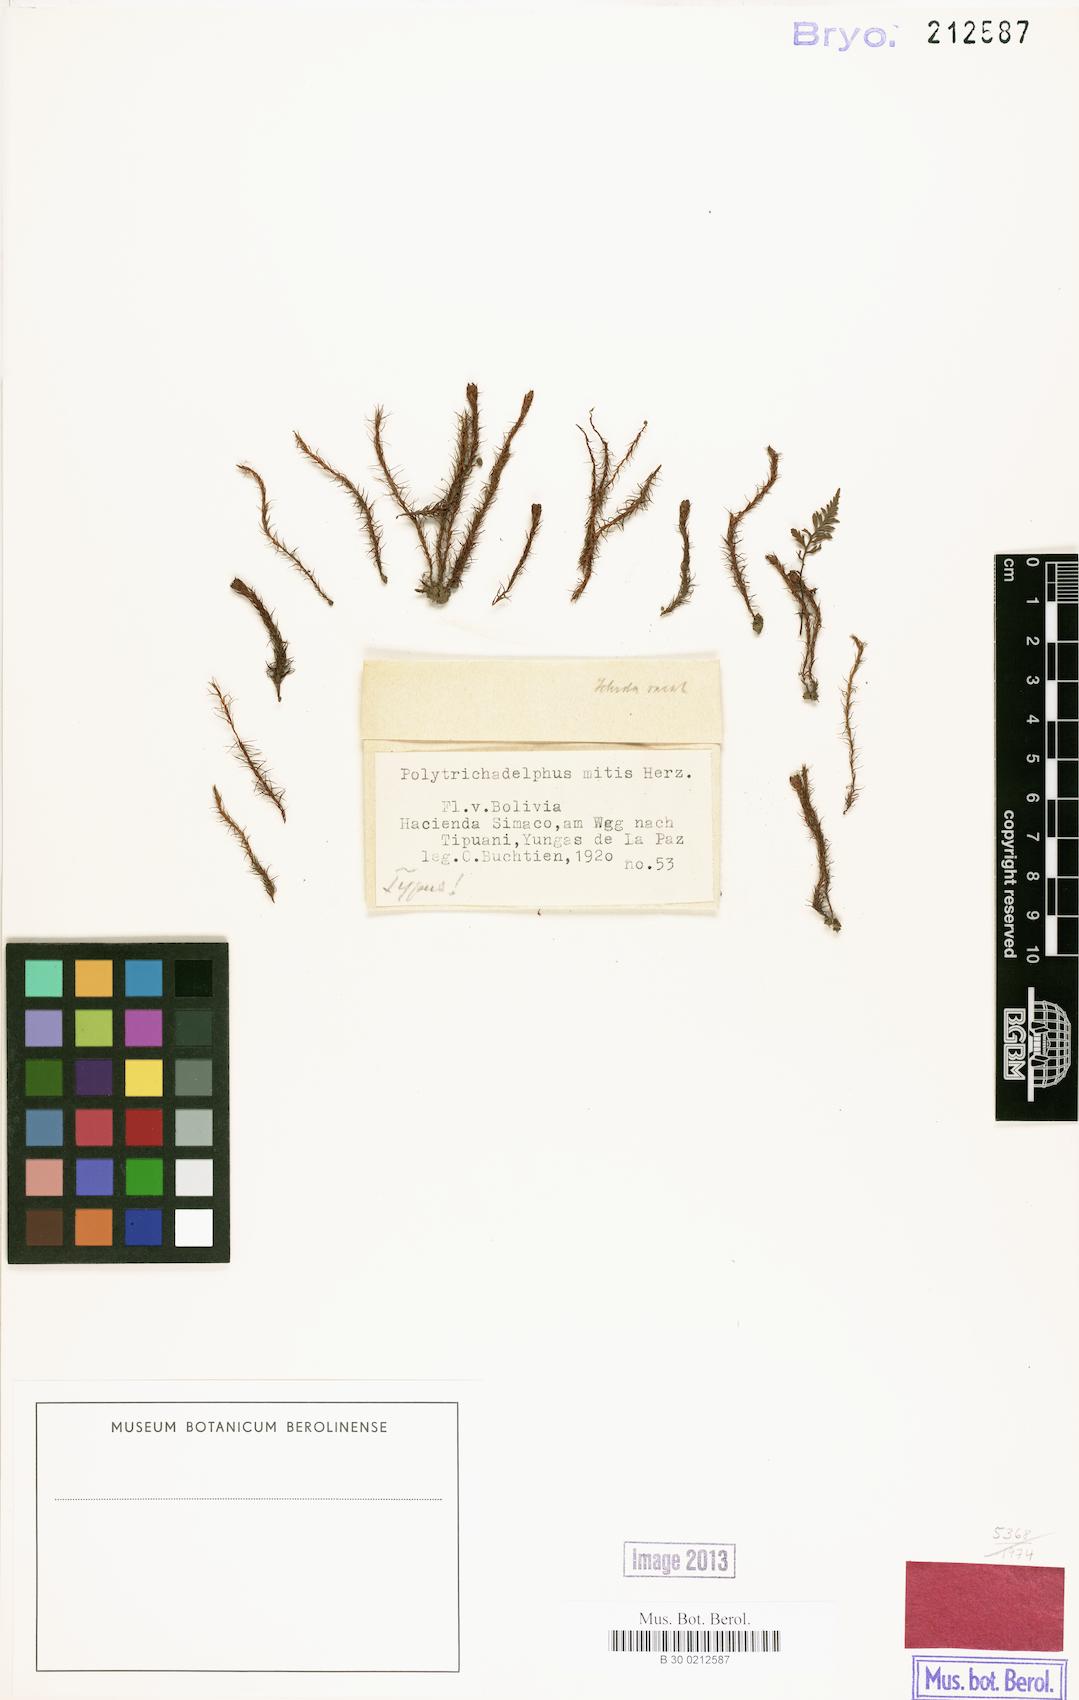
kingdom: Plantae
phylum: Bryophyta
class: Polytrichopsida
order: Polytrichales
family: Polytrichaceae
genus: Polytrichadelphus
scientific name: Polytrichadelphus longisetus
